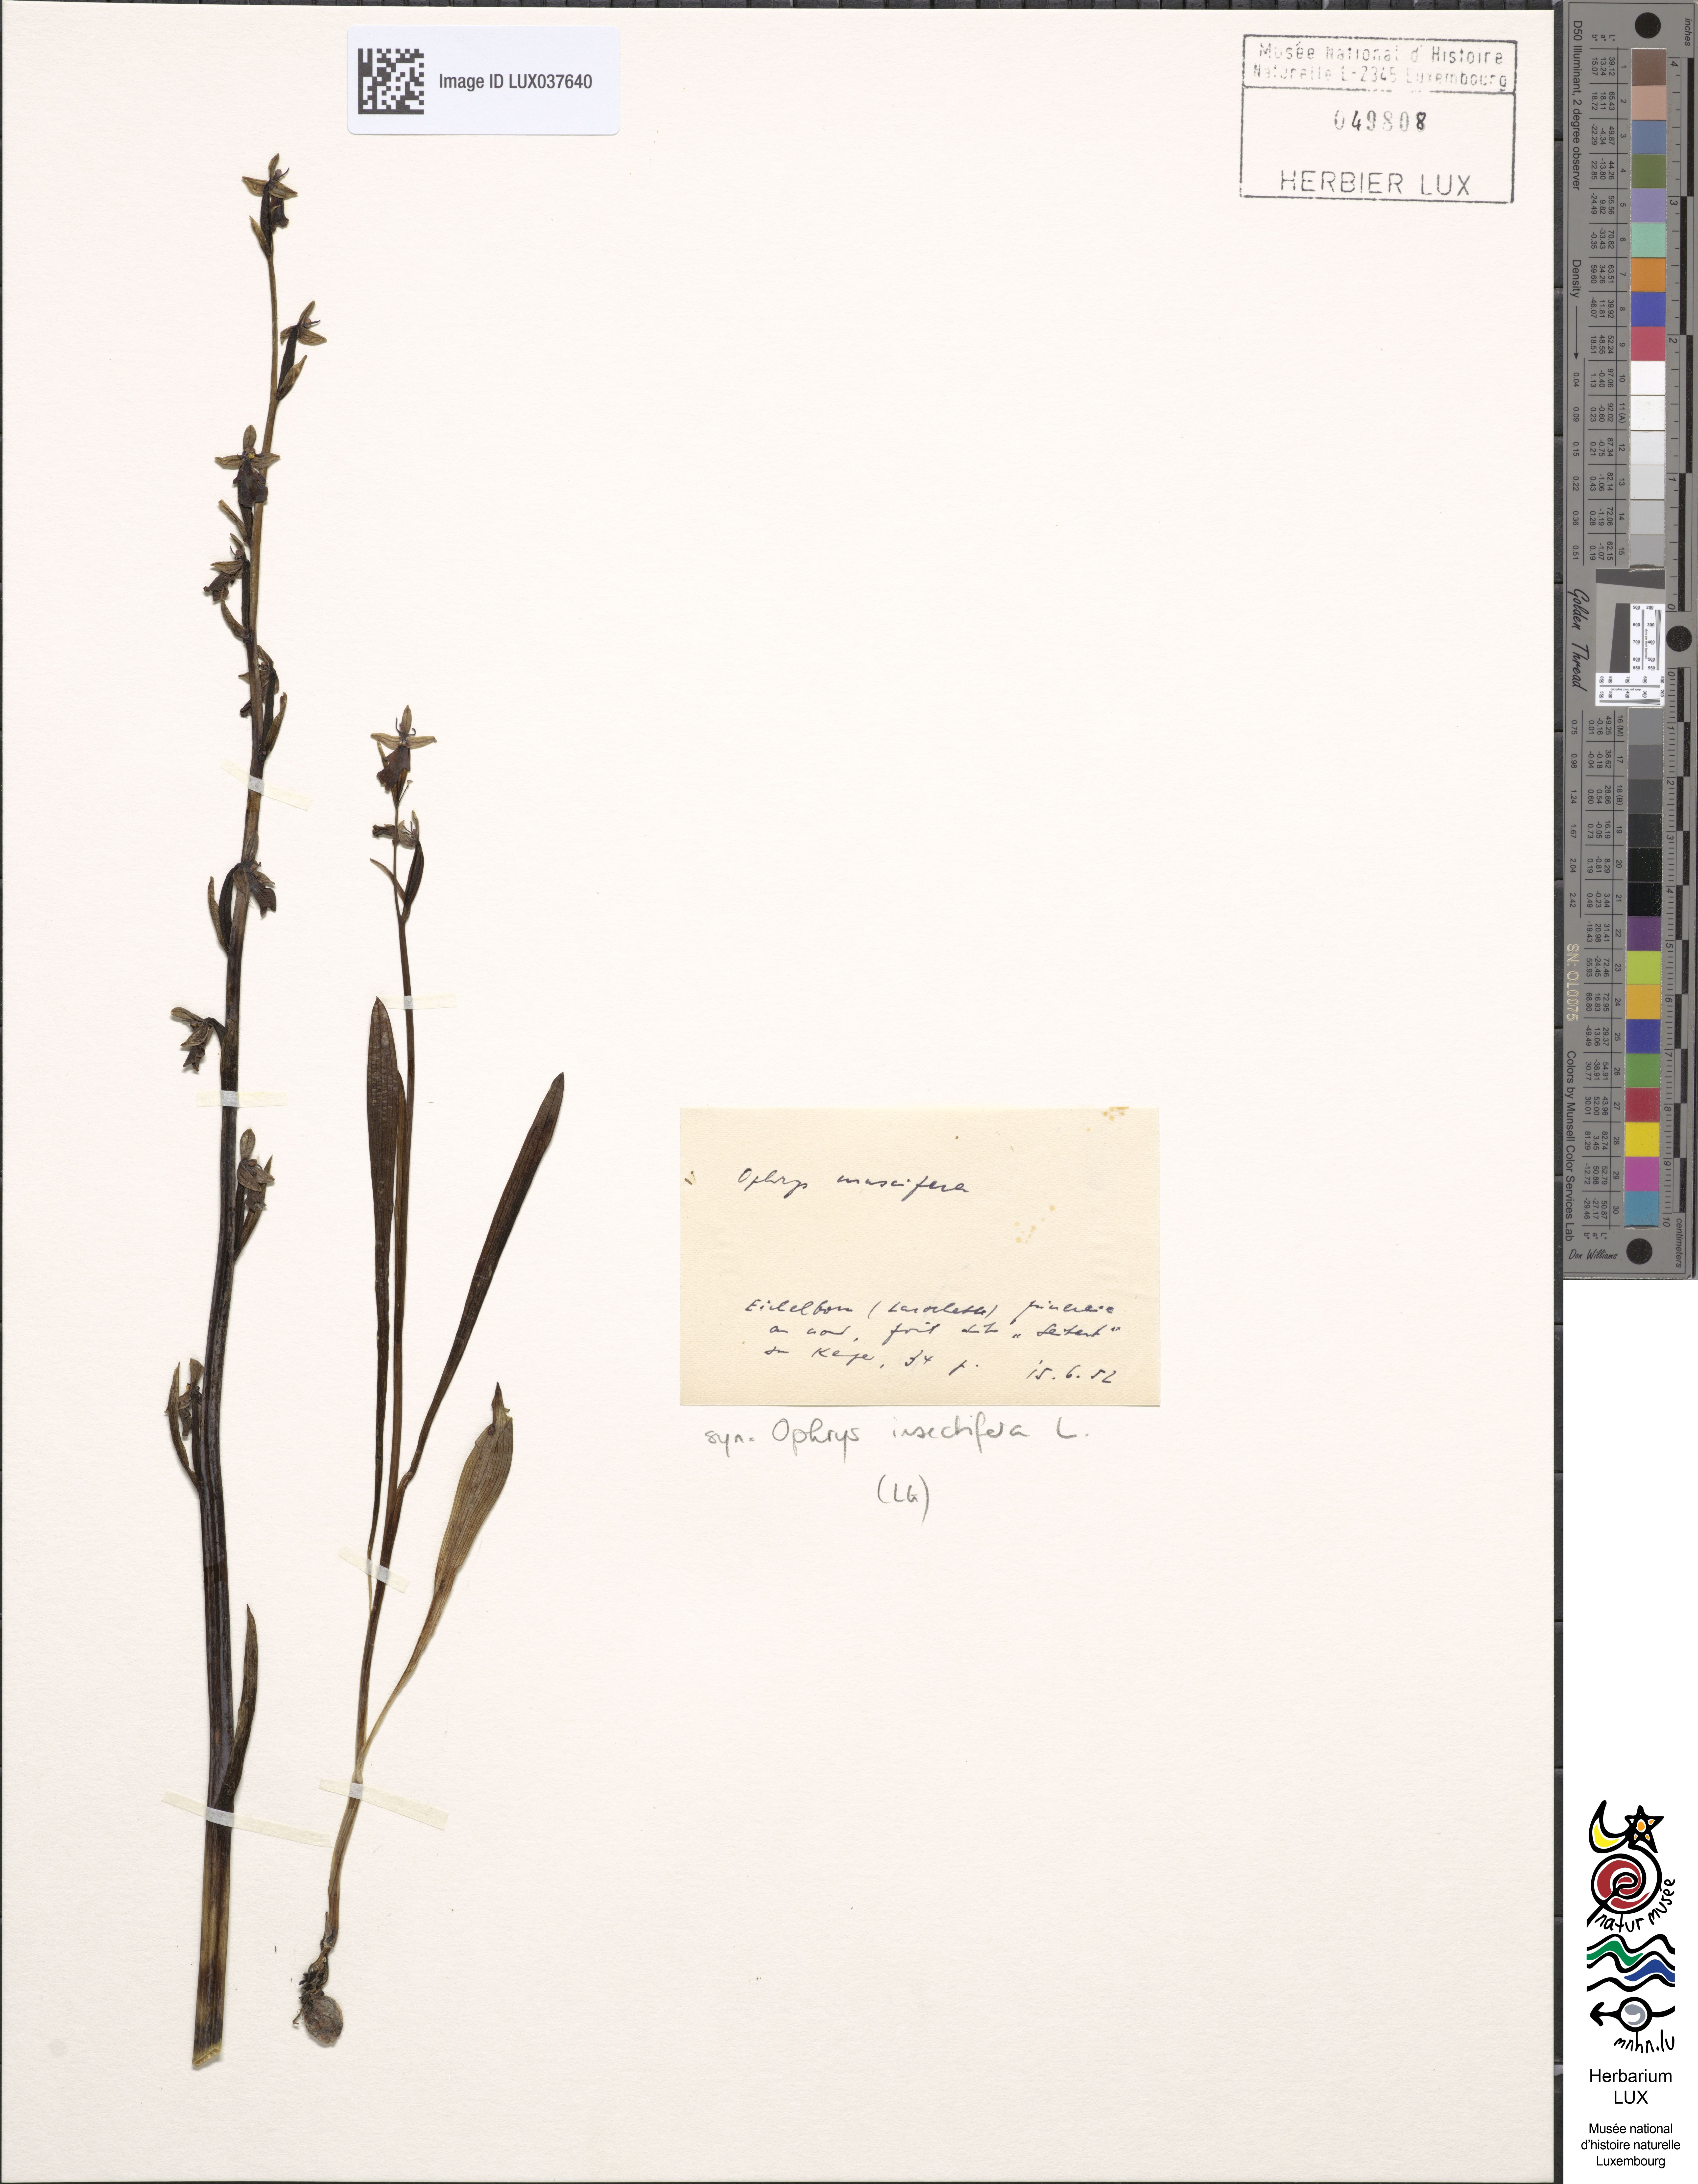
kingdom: Plantae
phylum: Tracheophyta
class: Liliopsida
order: Asparagales
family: Orchidaceae
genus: Ophrys
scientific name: Ophrys insectifera
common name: Fly orchid
